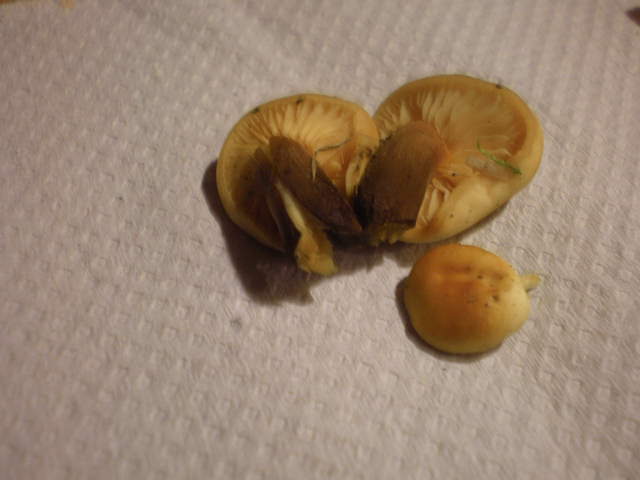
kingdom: Fungi
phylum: Basidiomycota
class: Agaricomycetes
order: Agaricales
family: Physalacriaceae
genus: Flammulina
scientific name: Flammulina velutipes
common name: gul fløjlsfod
